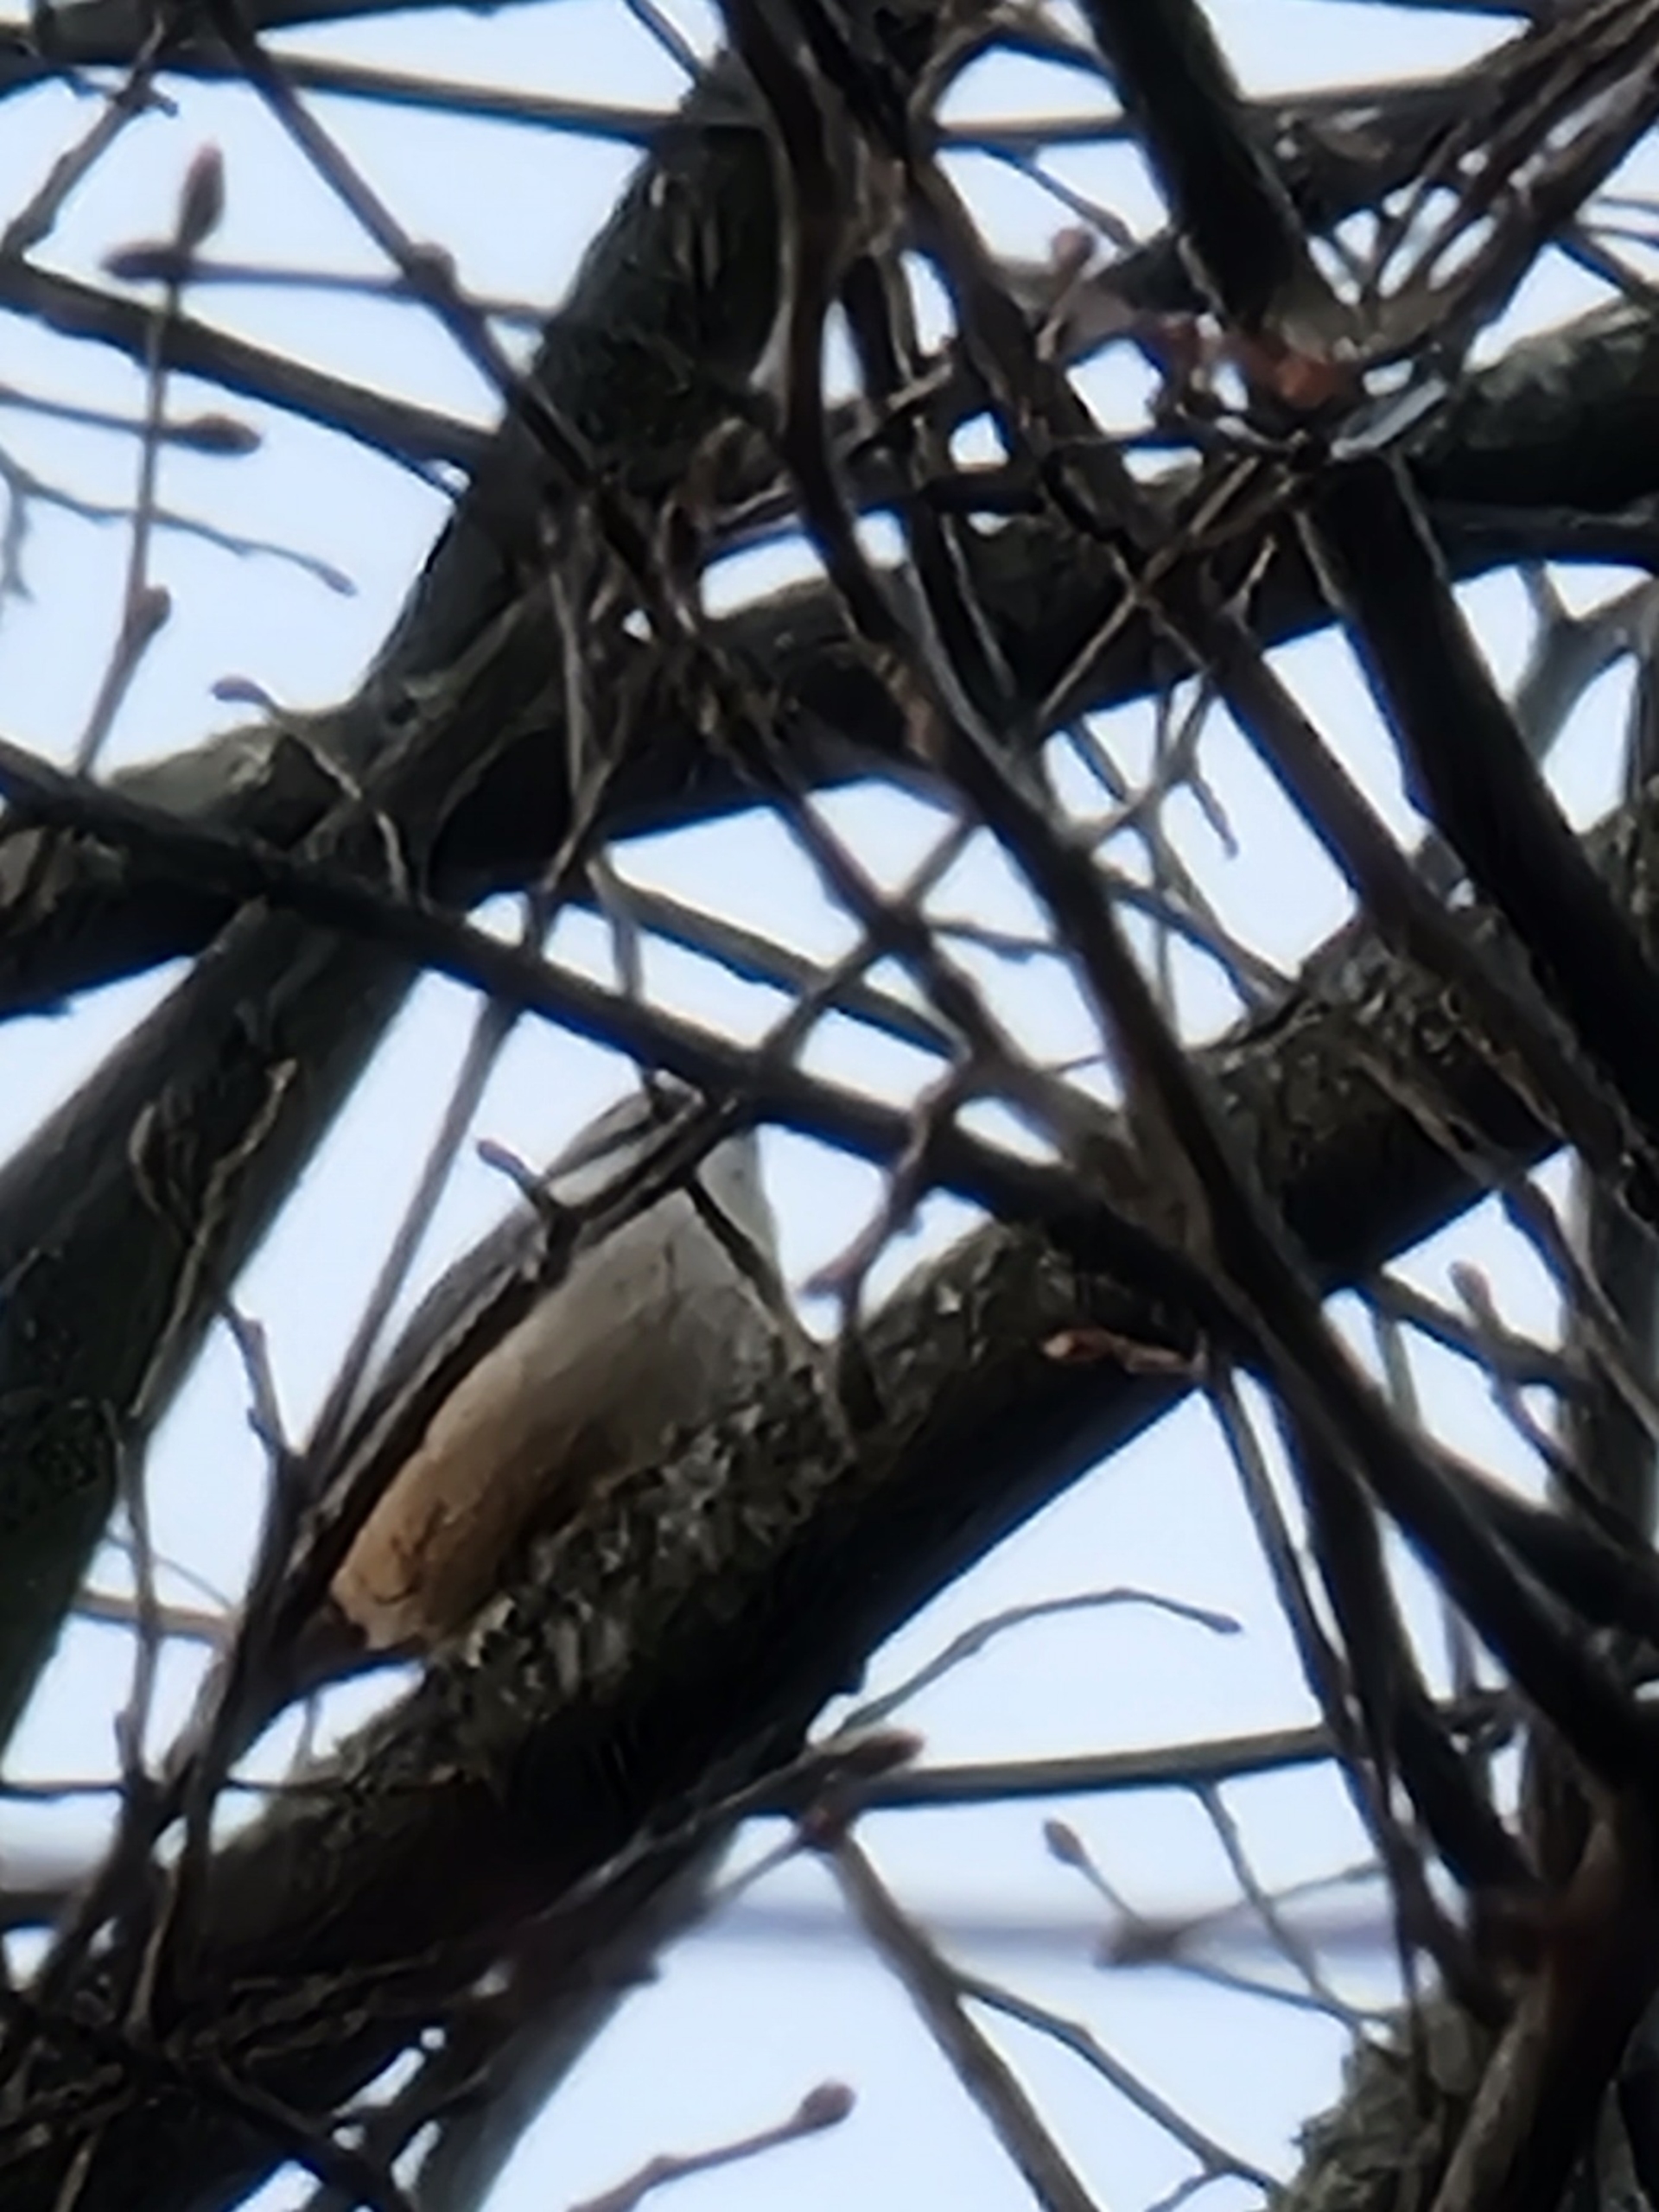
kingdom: Animalia
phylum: Chordata
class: Aves
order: Passeriformes
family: Sittidae
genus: Sitta
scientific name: Sitta europaea
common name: Spætmejse
